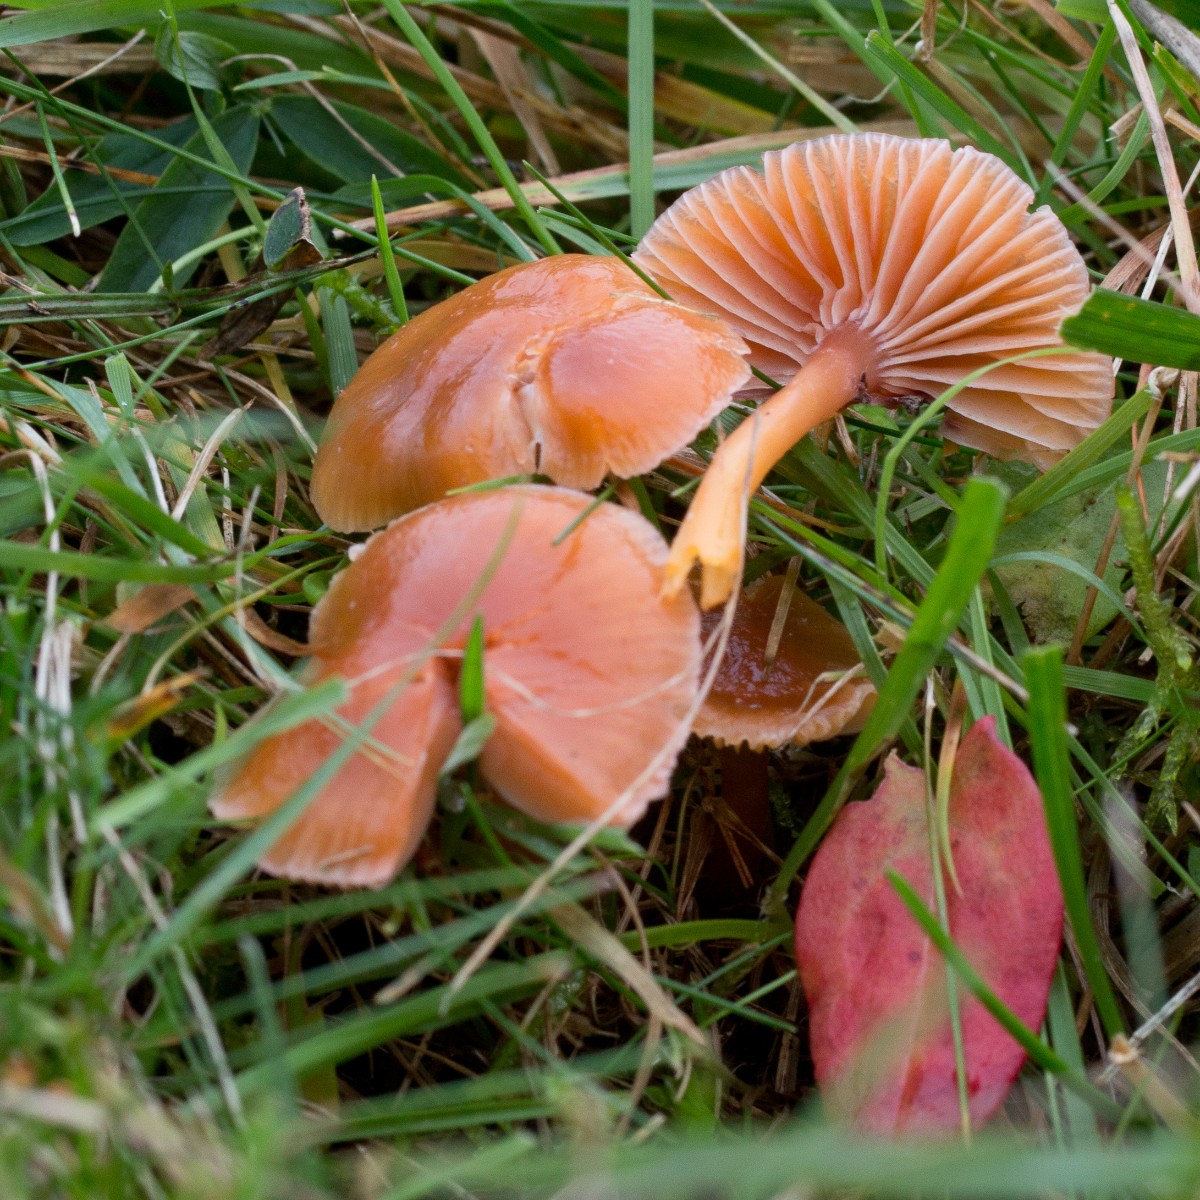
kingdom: Fungi
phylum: Basidiomycota
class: Agaricomycetes
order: Agaricales
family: Hygrophoraceae
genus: Gliophorus
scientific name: Gliophorus laetus
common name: brusk-vokshat
